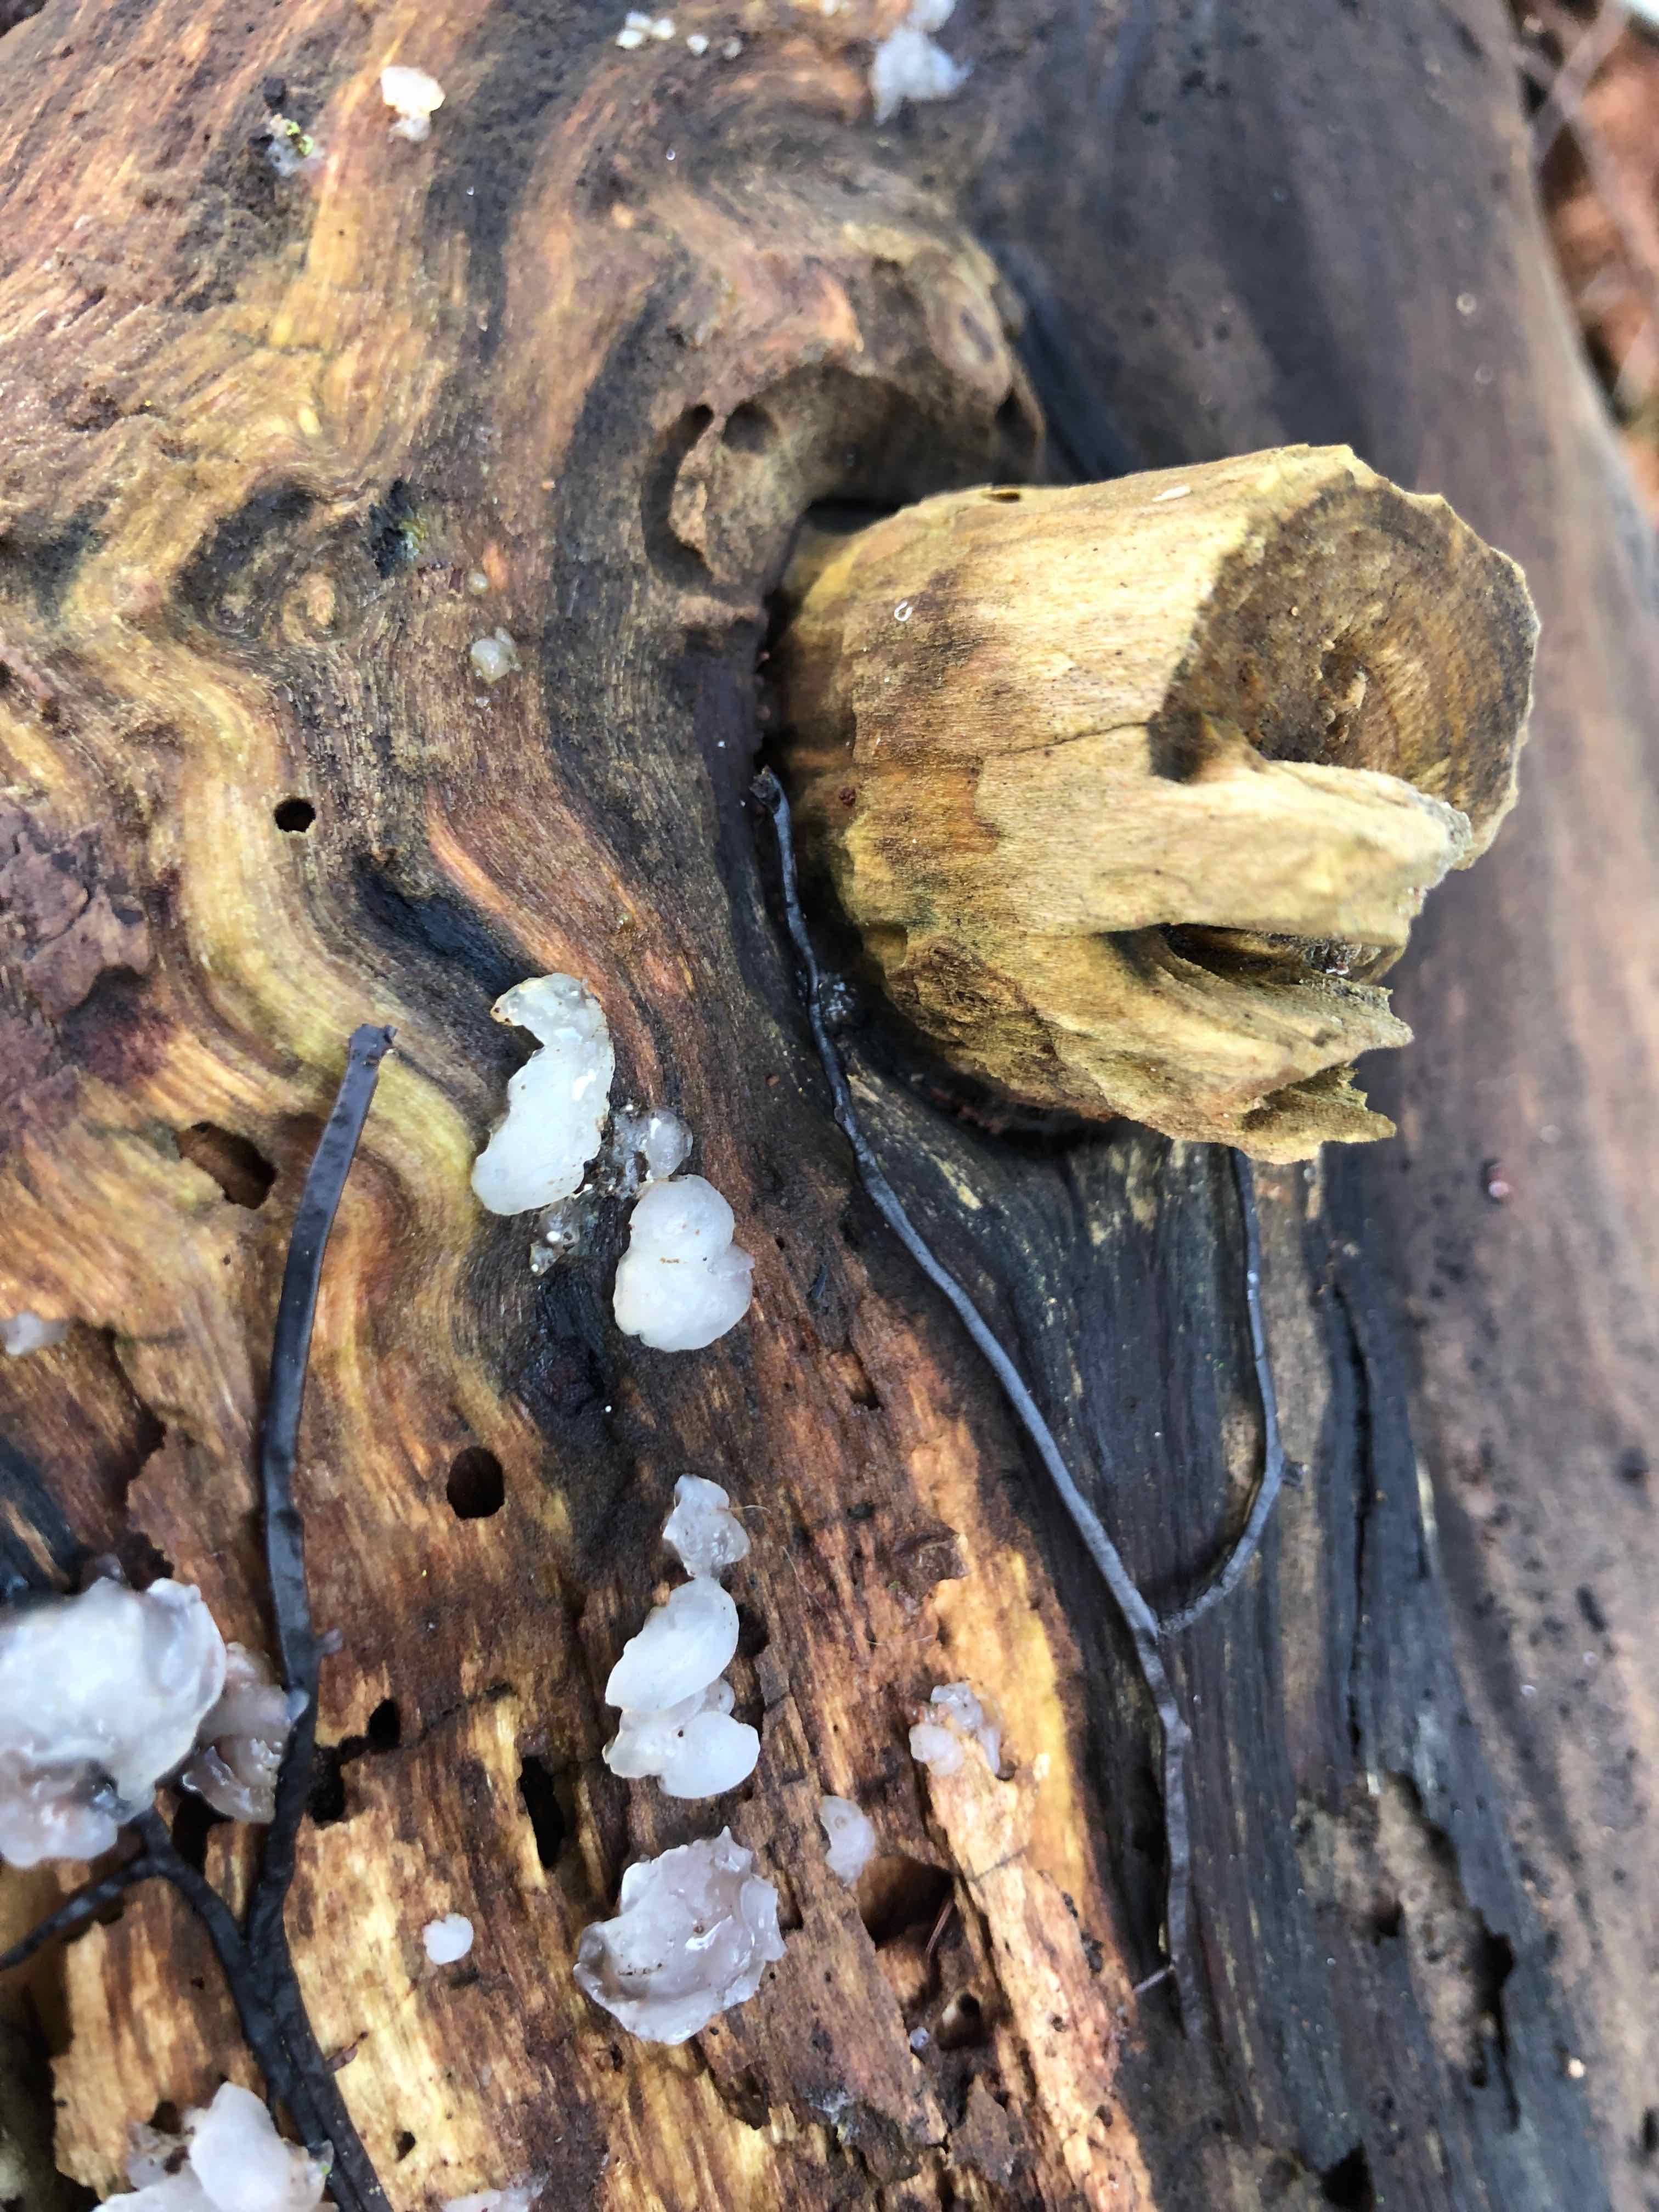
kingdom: Fungi
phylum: Basidiomycota
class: Agaricomycetes
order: Auriculariales
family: Hyaloriaceae
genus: Myxarium
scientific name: Myxarium nucleatum
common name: klar bævretop
